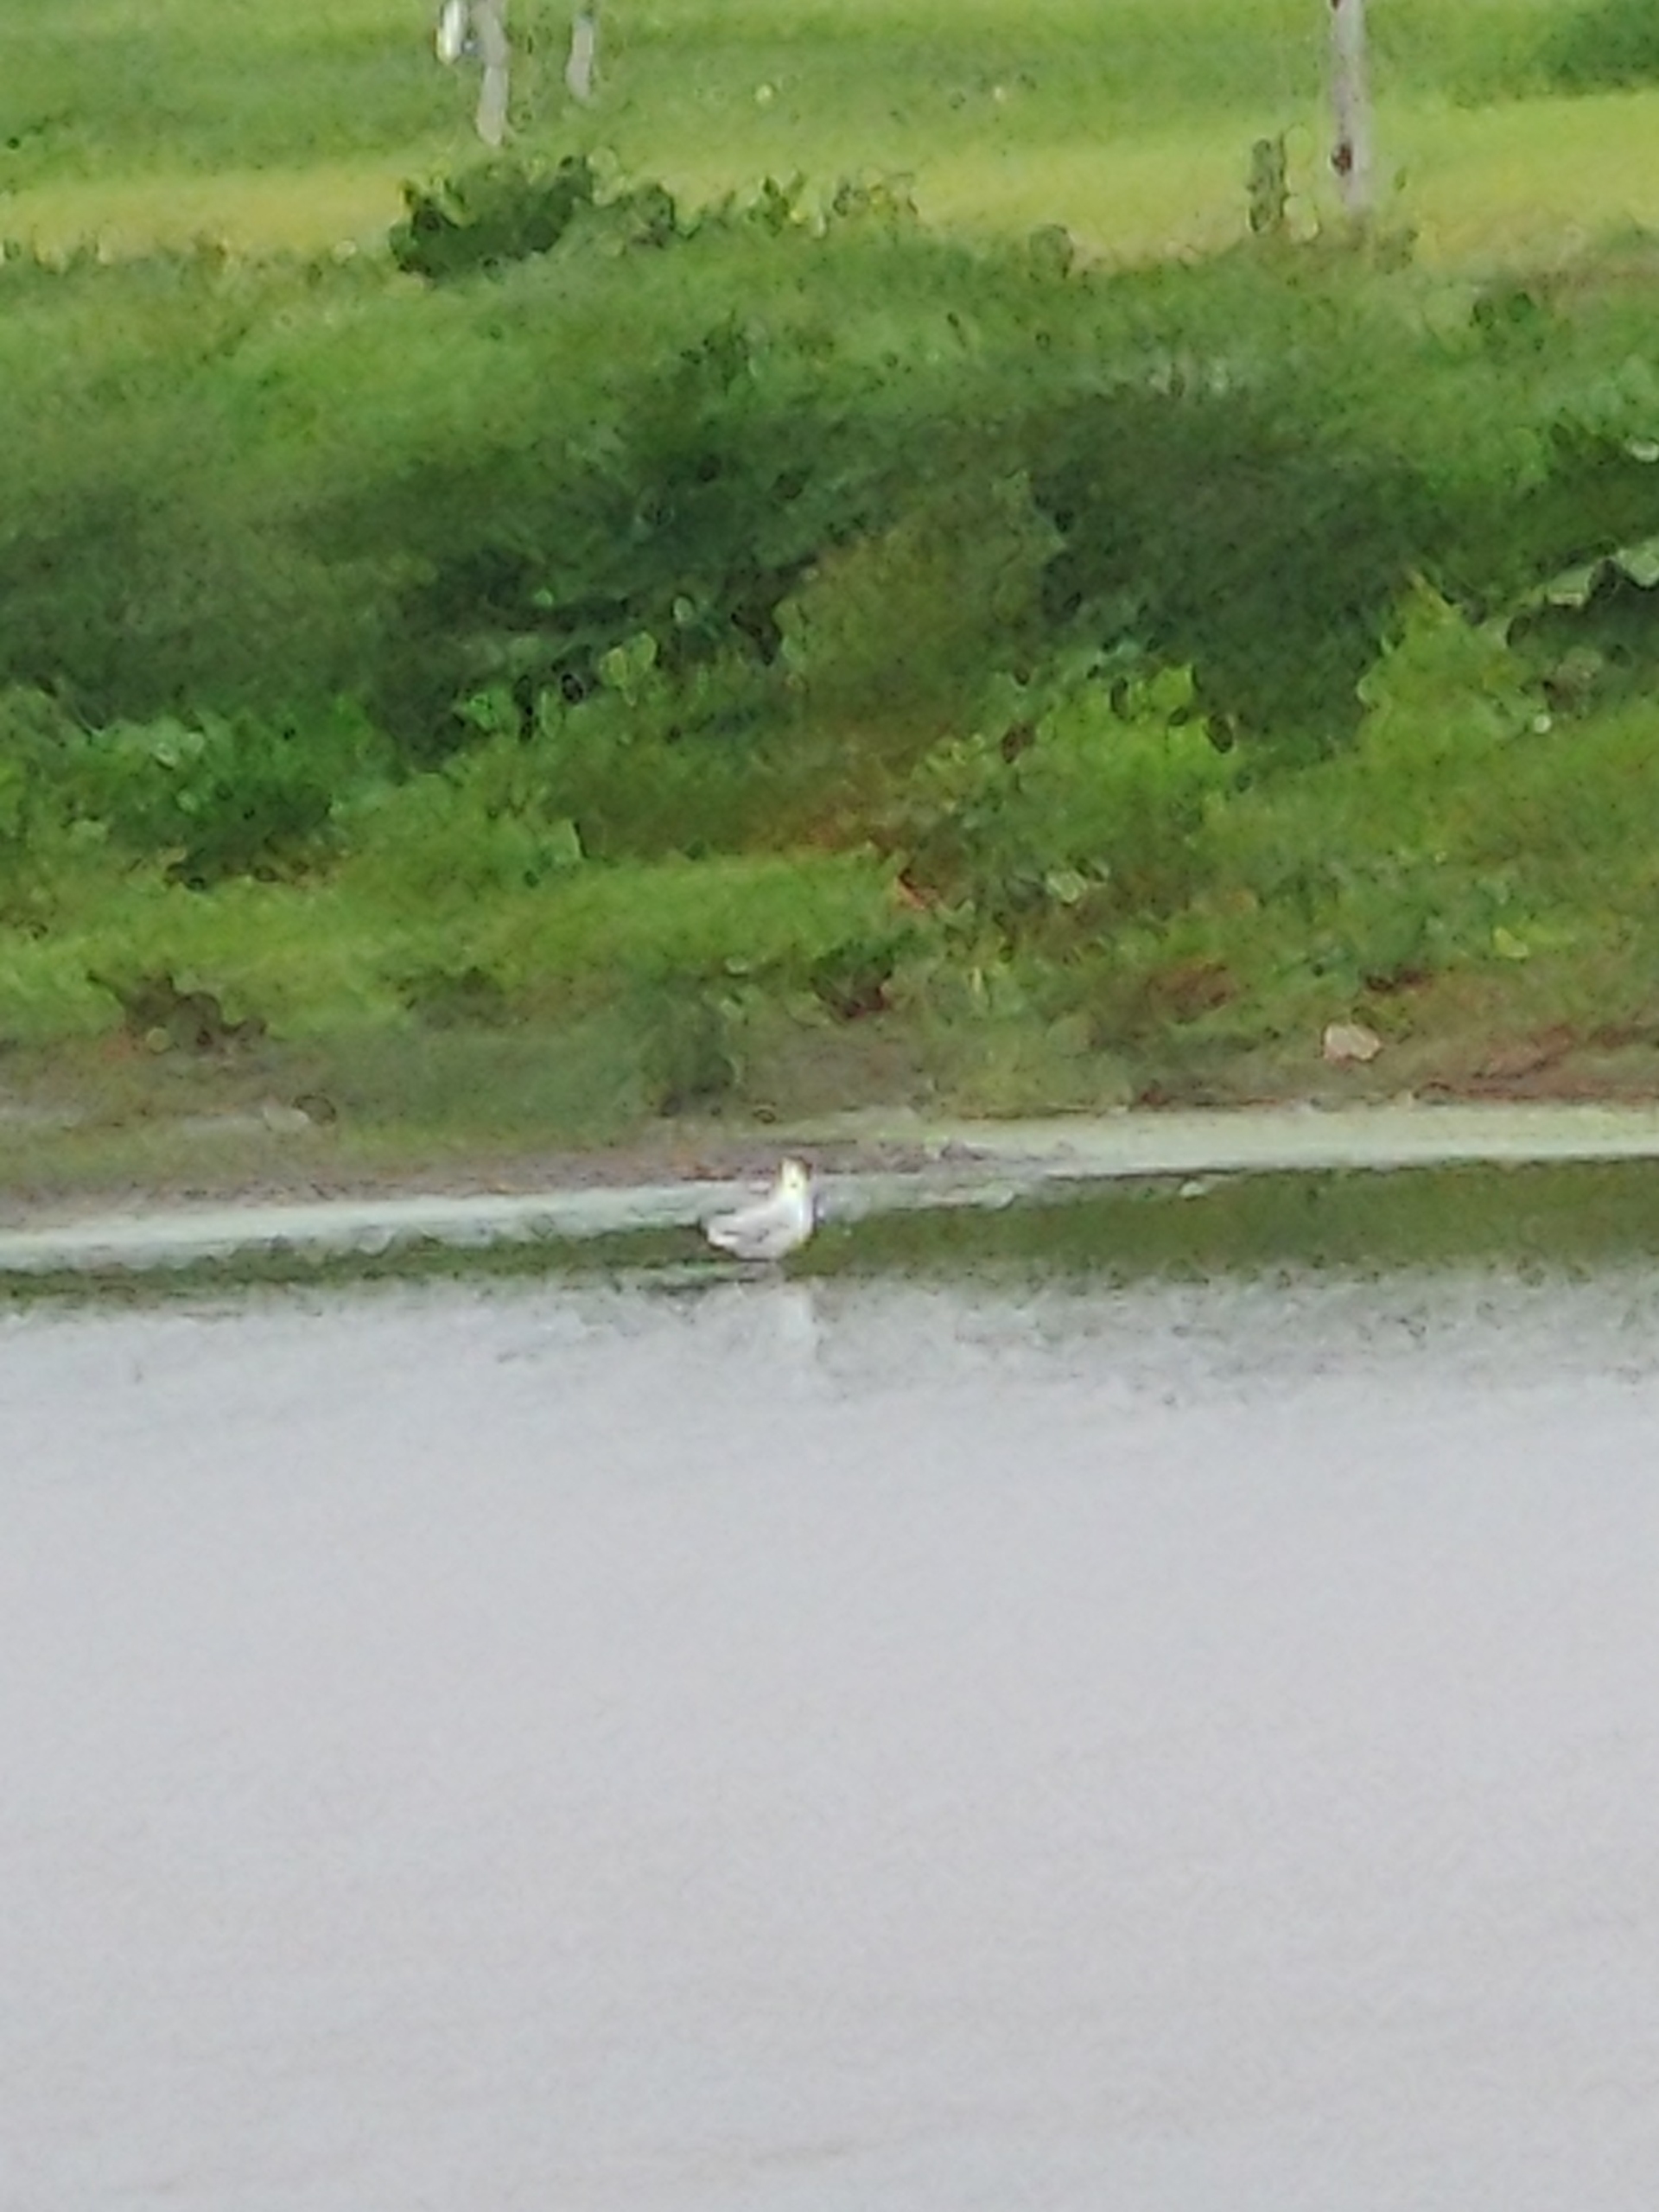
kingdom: Animalia
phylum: Chordata
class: Aves
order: Charadriiformes
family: Laridae
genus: Chroicocephalus
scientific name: Chroicocephalus ridibundus
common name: Hættemåge
